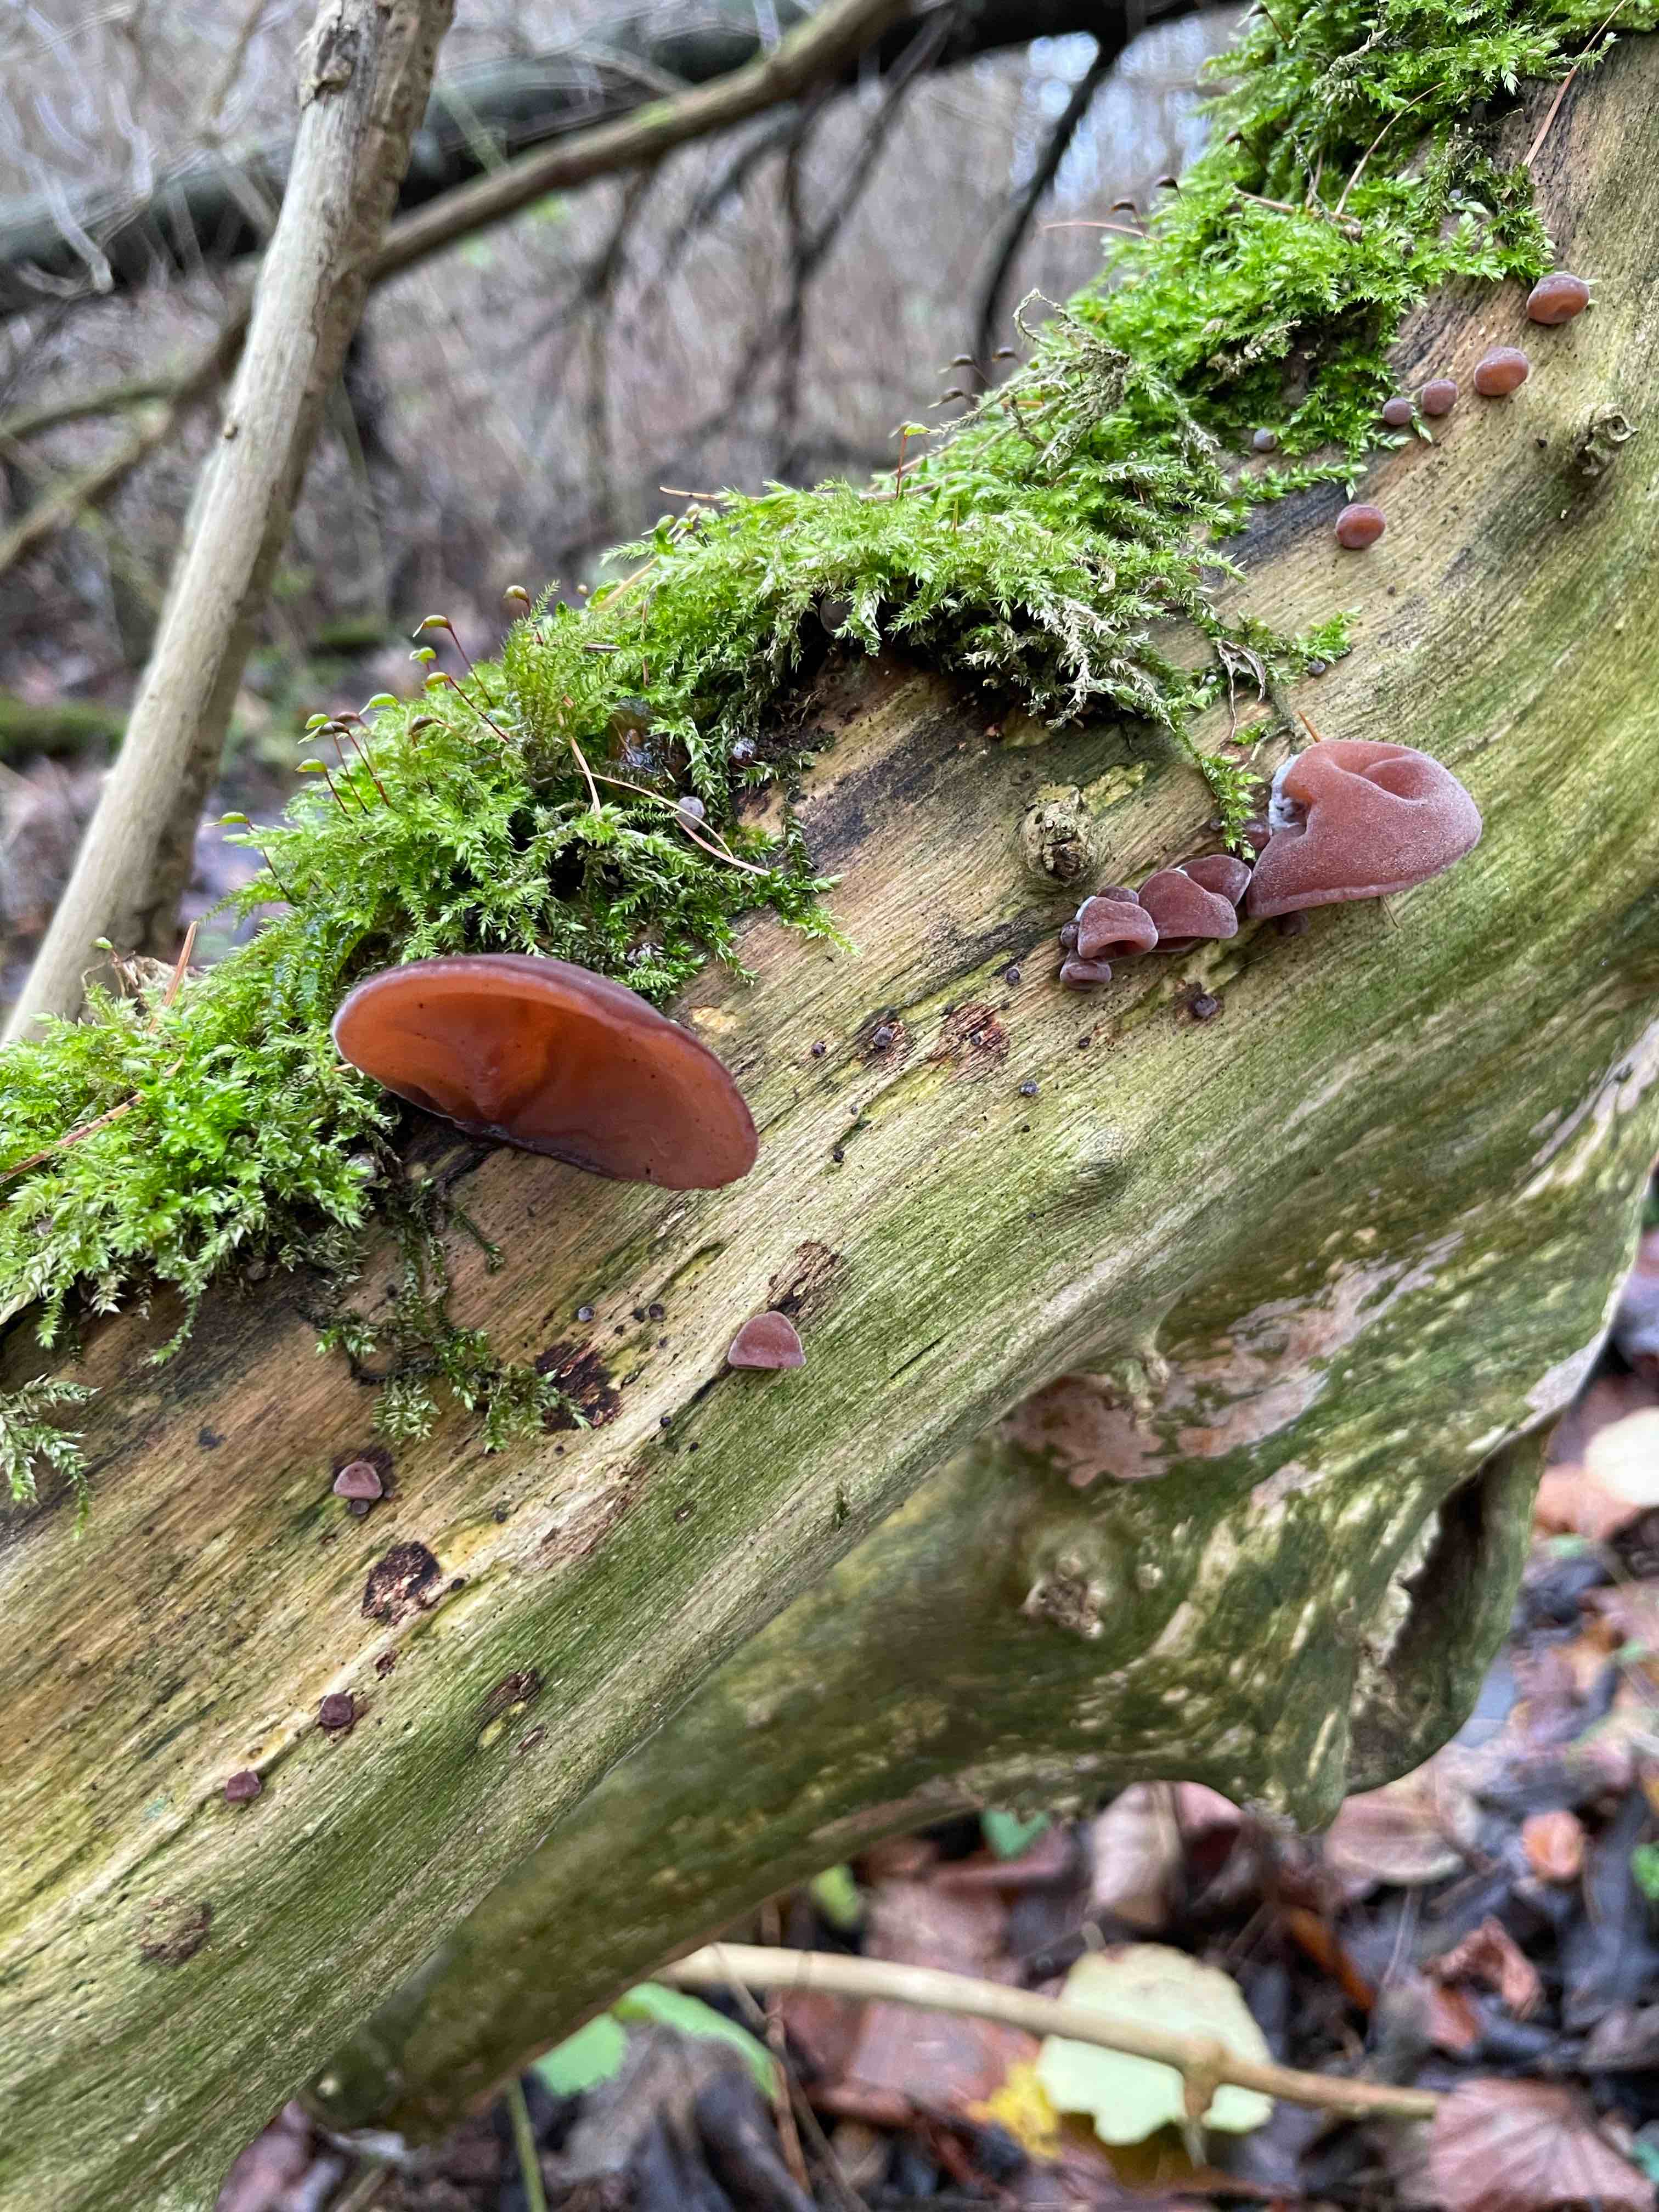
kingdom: Fungi
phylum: Basidiomycota
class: Agaricomycetes
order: Auriculariales
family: Auriculariaceae
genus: Auricularia
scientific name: Auricularia auricula-judae
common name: almindelig judasøre
